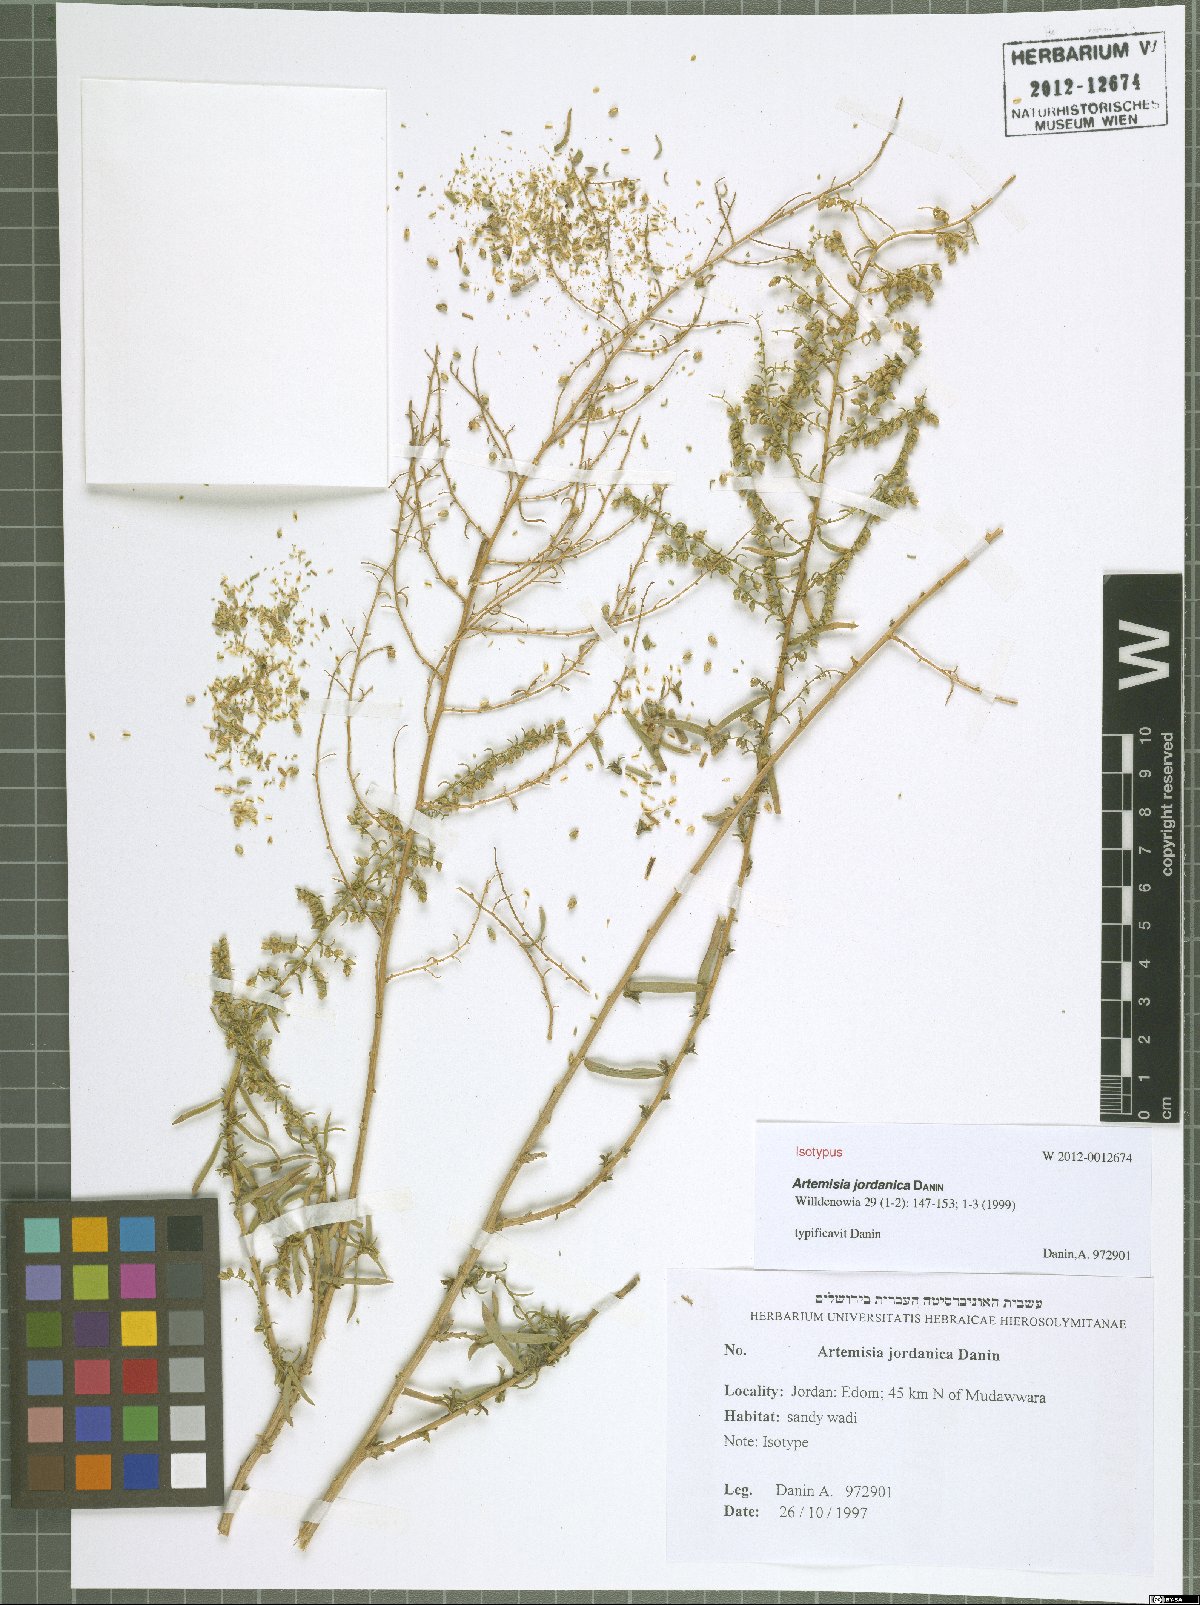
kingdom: Plantae
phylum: Tracheophyta
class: Magnoliopsida
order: Asterales
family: Asteraceae
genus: Artemisia
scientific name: Artemisia jordanica
